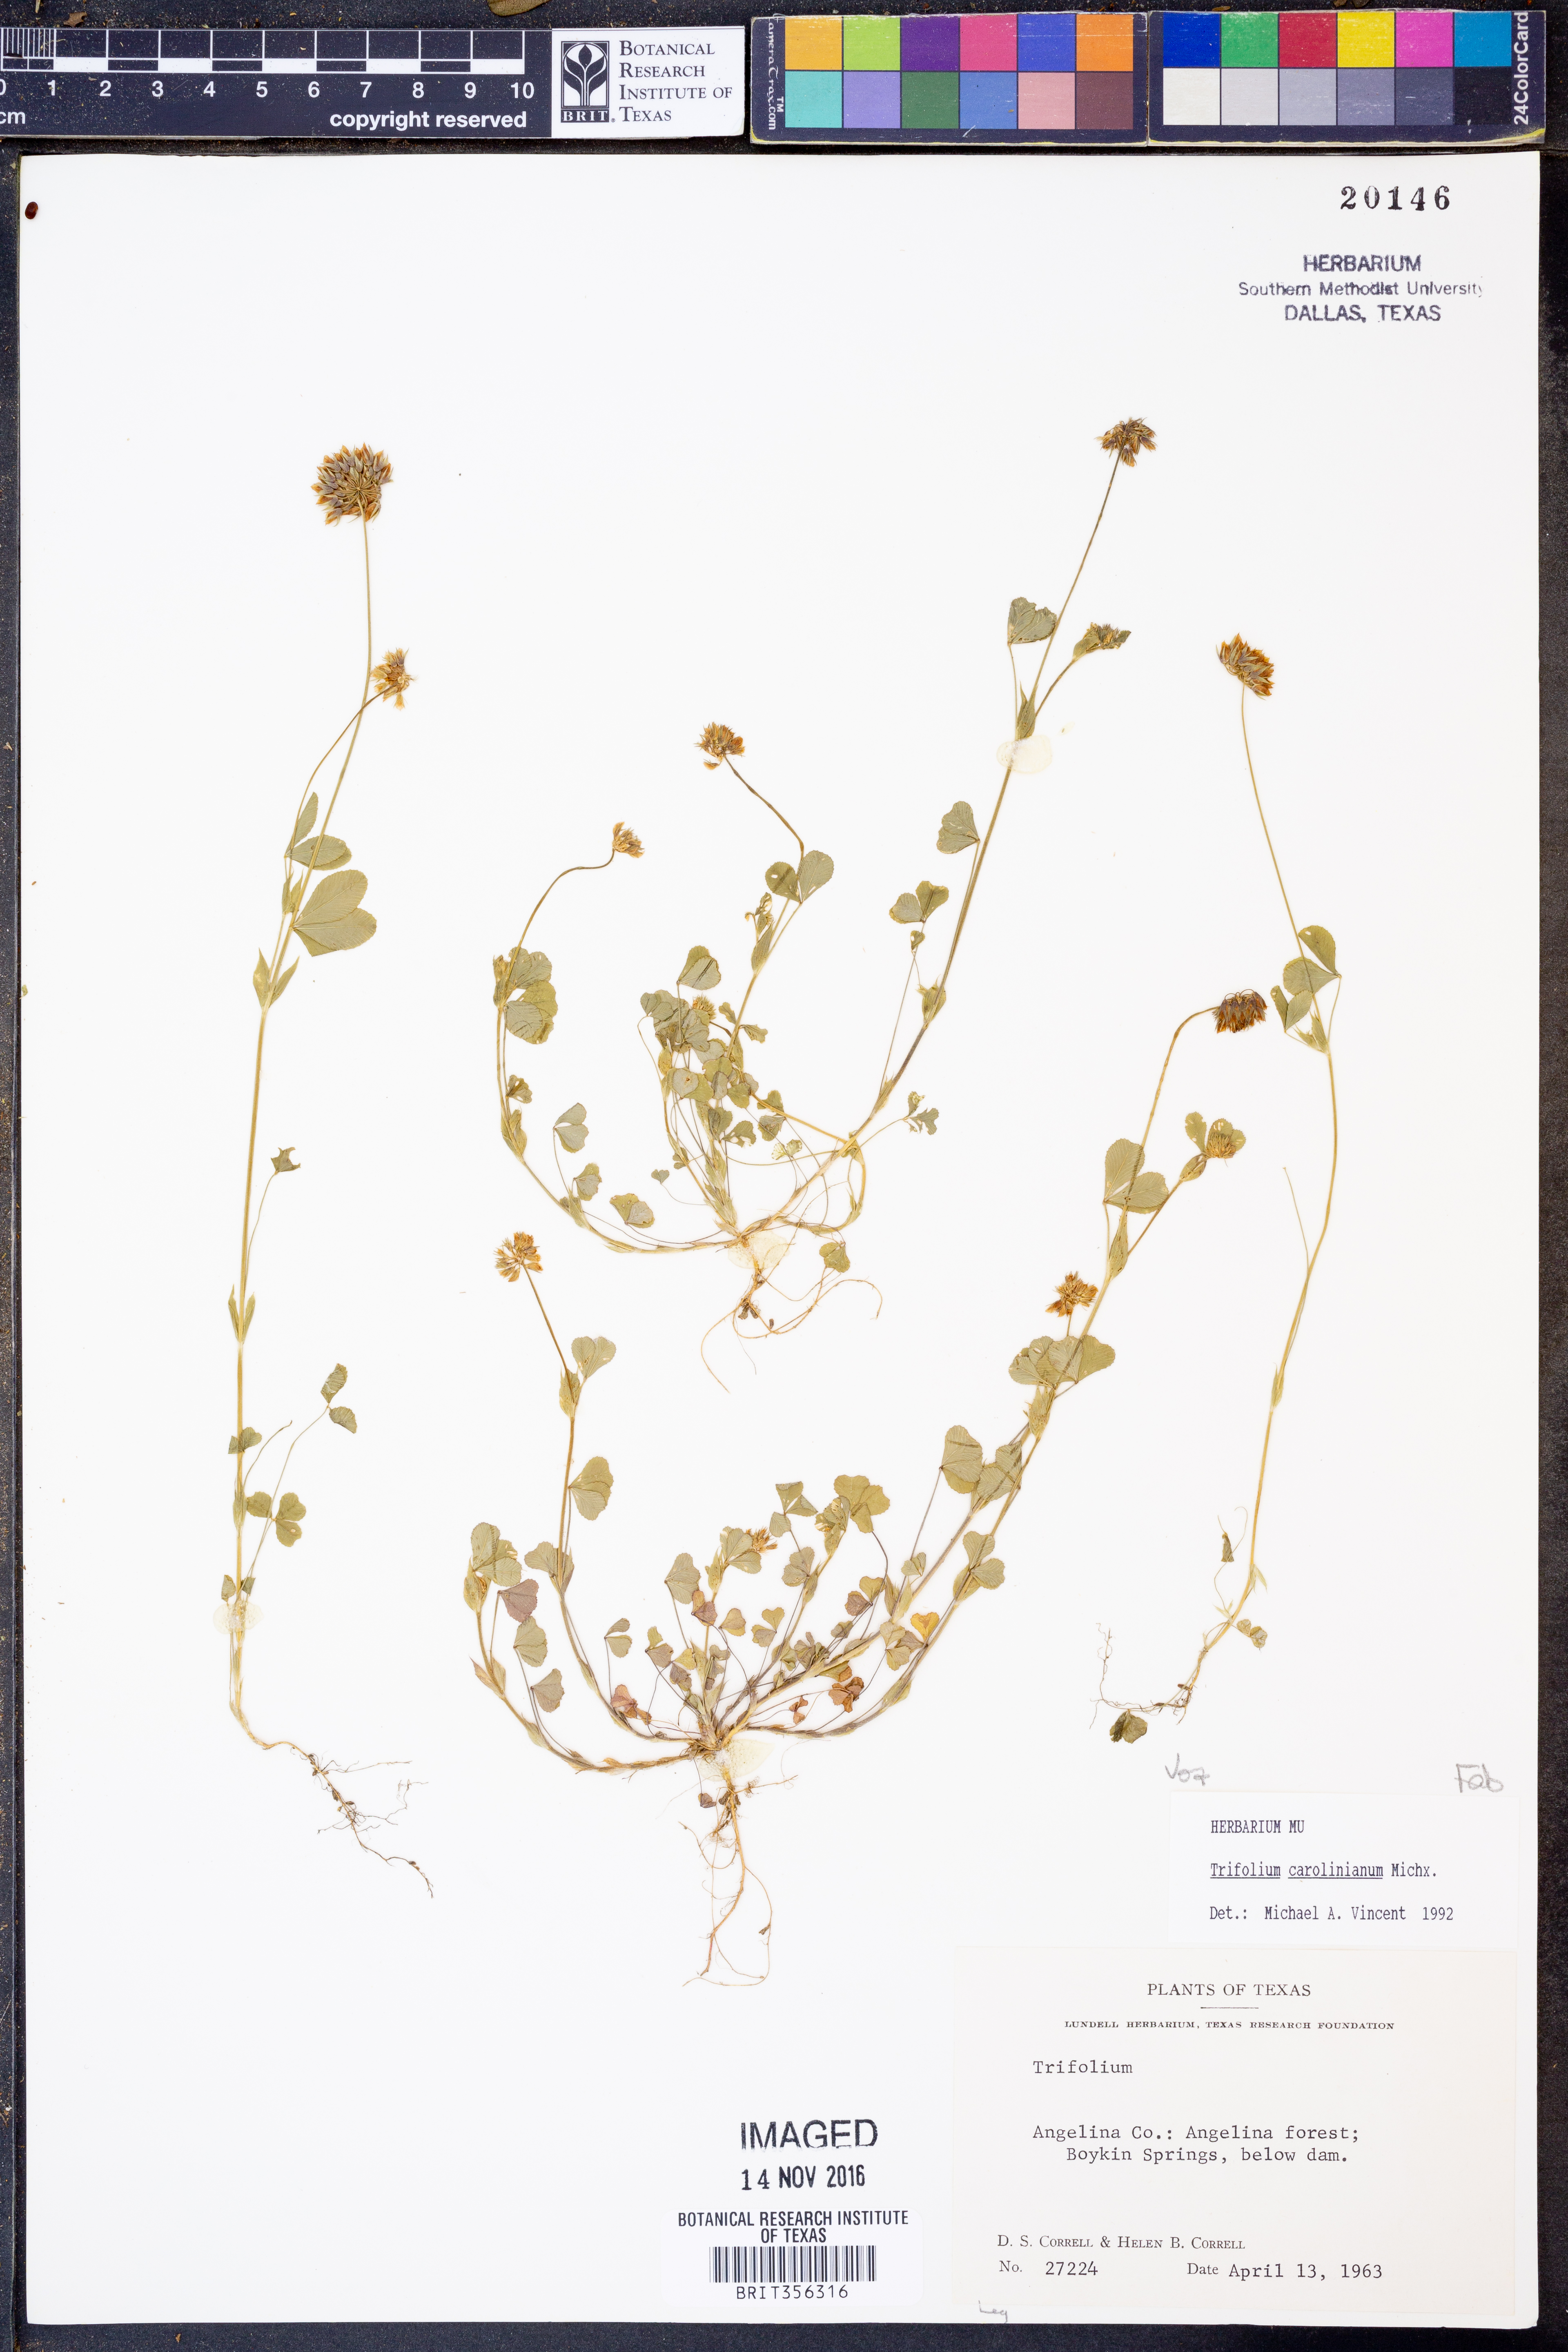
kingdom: Plantae
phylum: Tracheophyta
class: Magnoliopsida
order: Fabales
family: Fabaceae
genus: Trifolium
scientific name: Trifolium carolinianum
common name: Wild white clover
